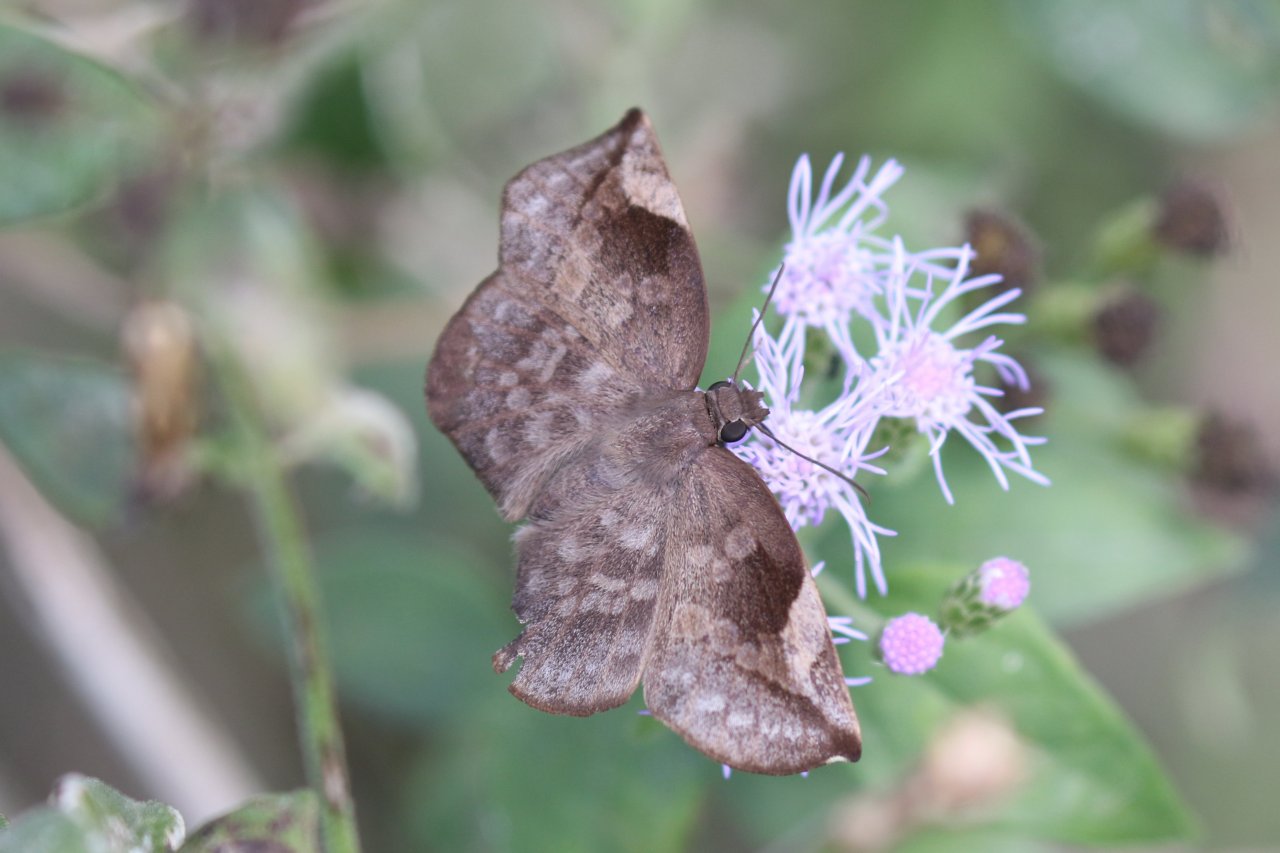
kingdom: Animalia
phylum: Arthropoda
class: Insecta
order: Lepidoptera
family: Hesperiidae
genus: Achlyodes
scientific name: Achlyodes thraso
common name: Sickle-winged Skipper
